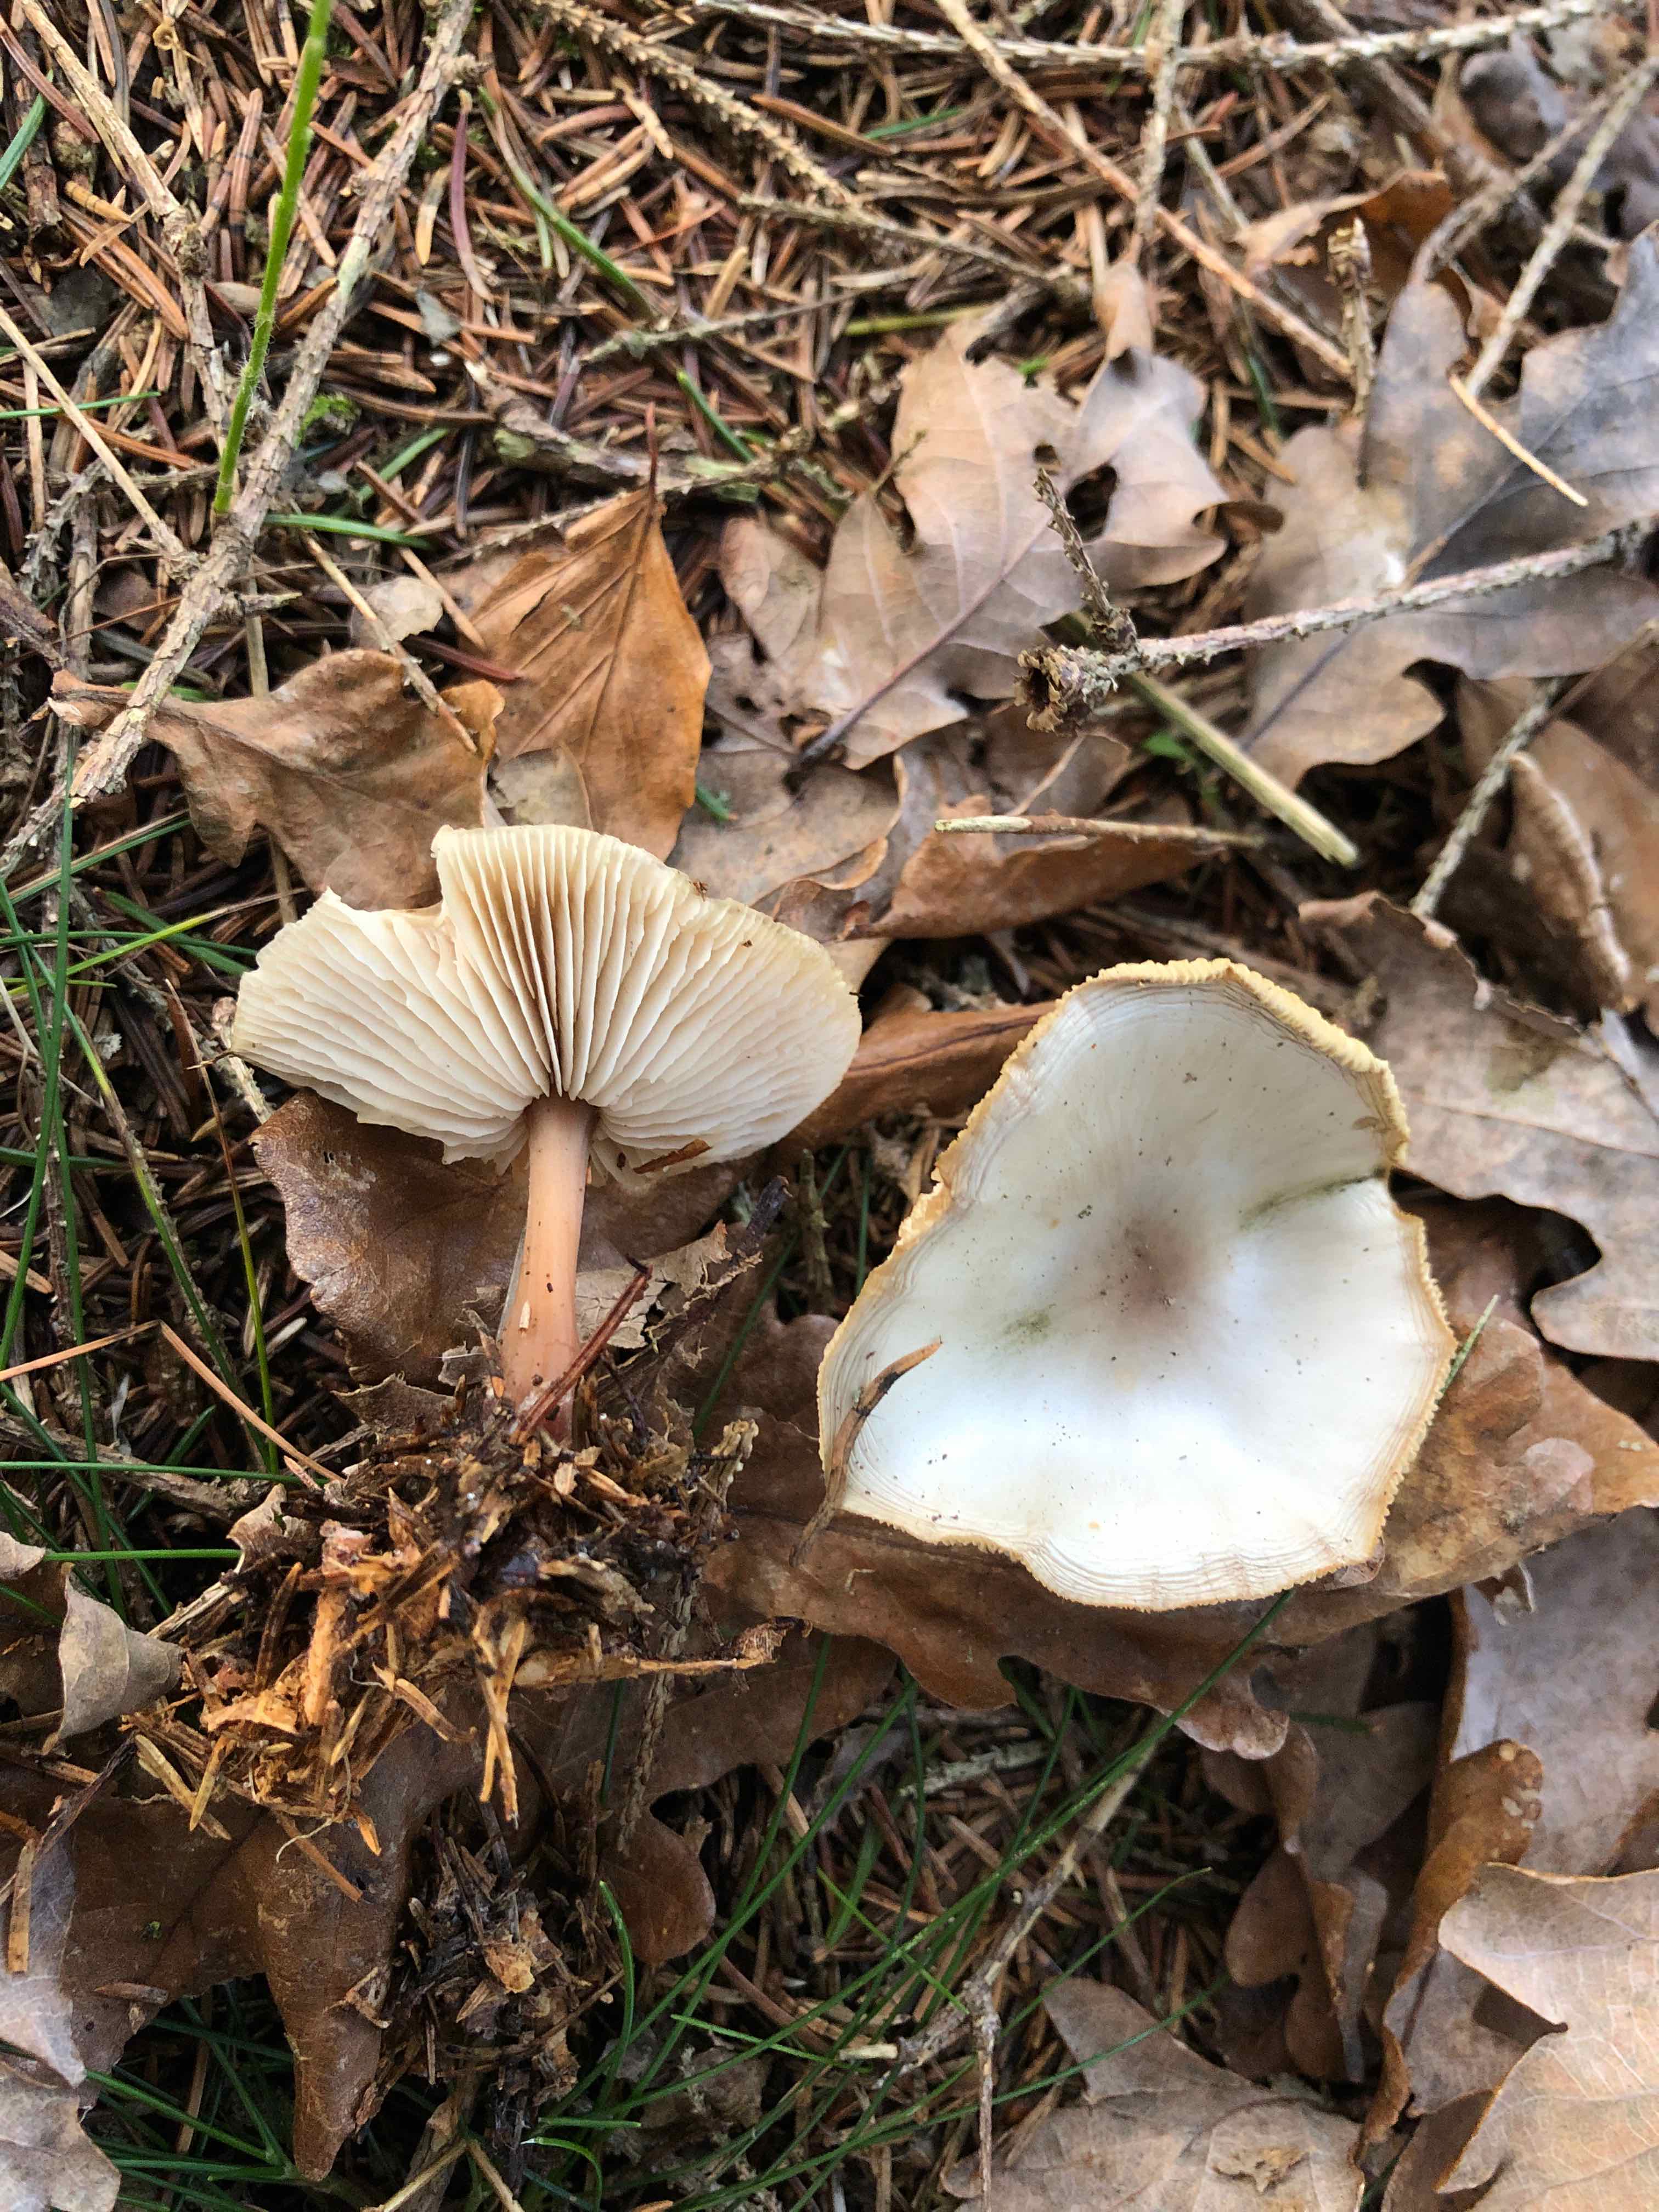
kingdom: Fungi
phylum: Basidiomycota
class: Agaricomycetes
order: Agaricales
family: Omphalotaceae
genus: Rhodocollybia
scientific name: Rhodocollybia asema
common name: horngrå fladhat
